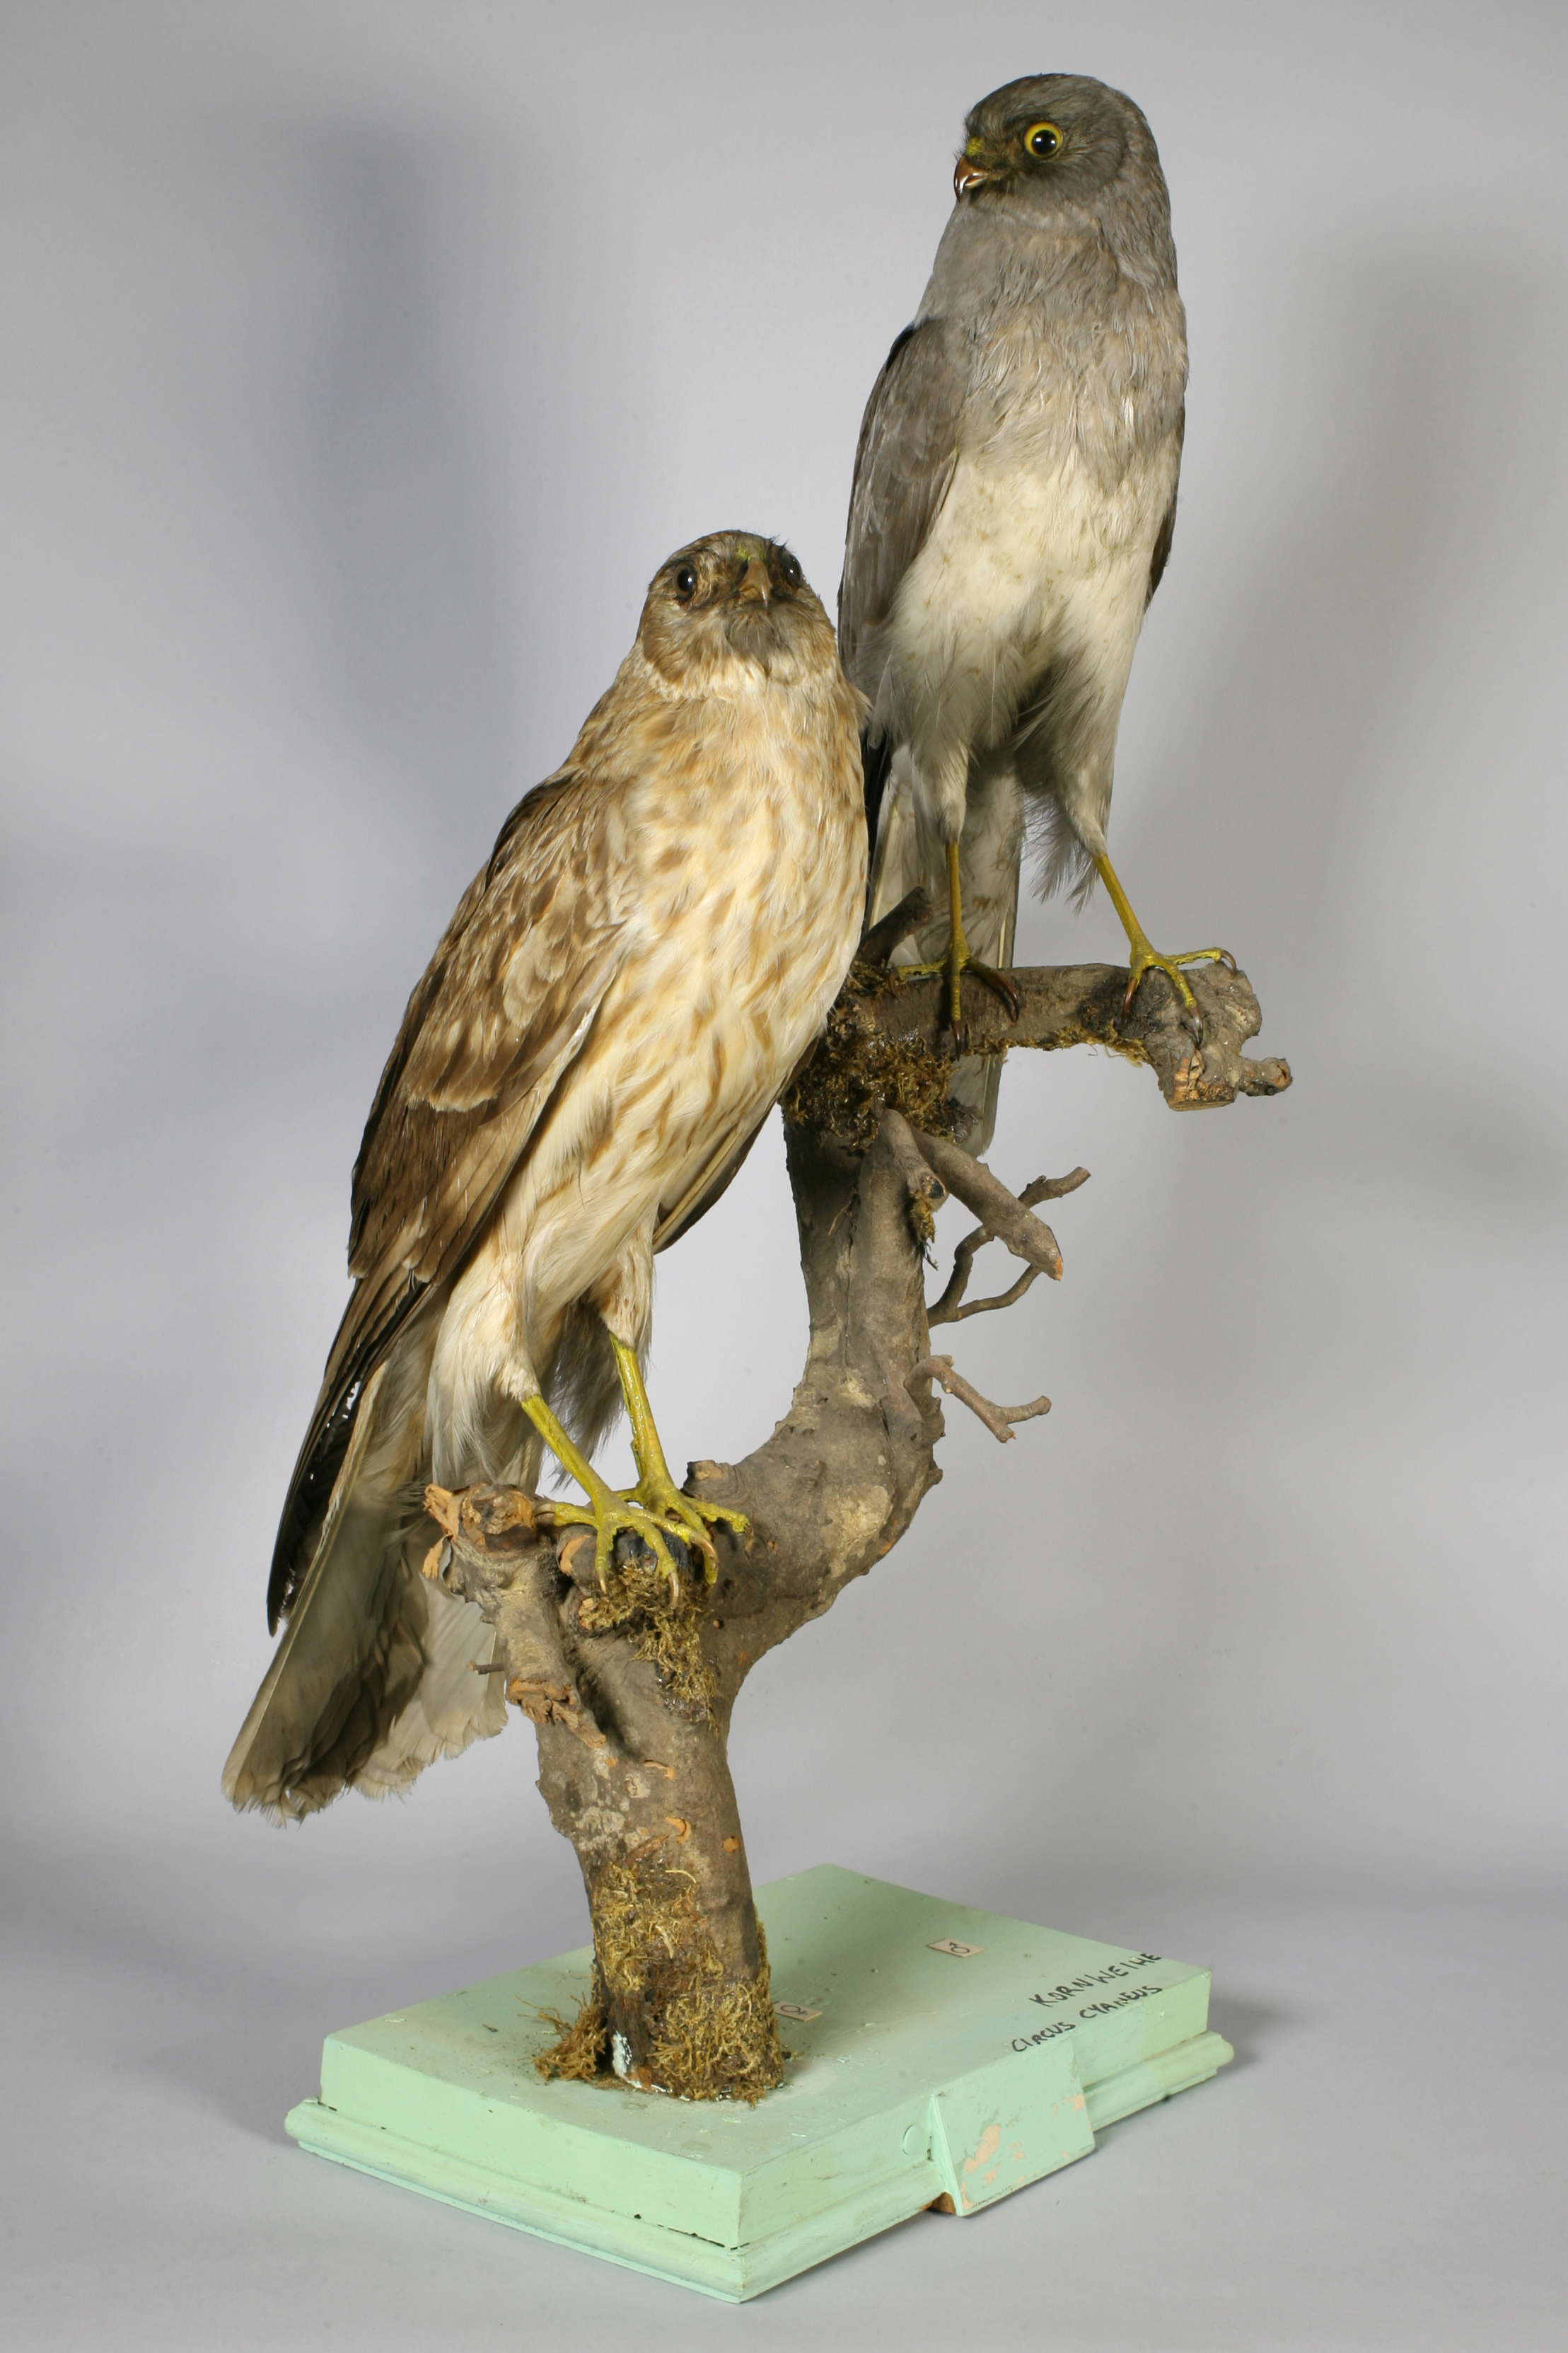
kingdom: Animalia
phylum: Chordata
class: Aves
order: Accipitriformes
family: Accipitridae
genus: Circus
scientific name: Circus cyaneus
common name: Hen harrier
